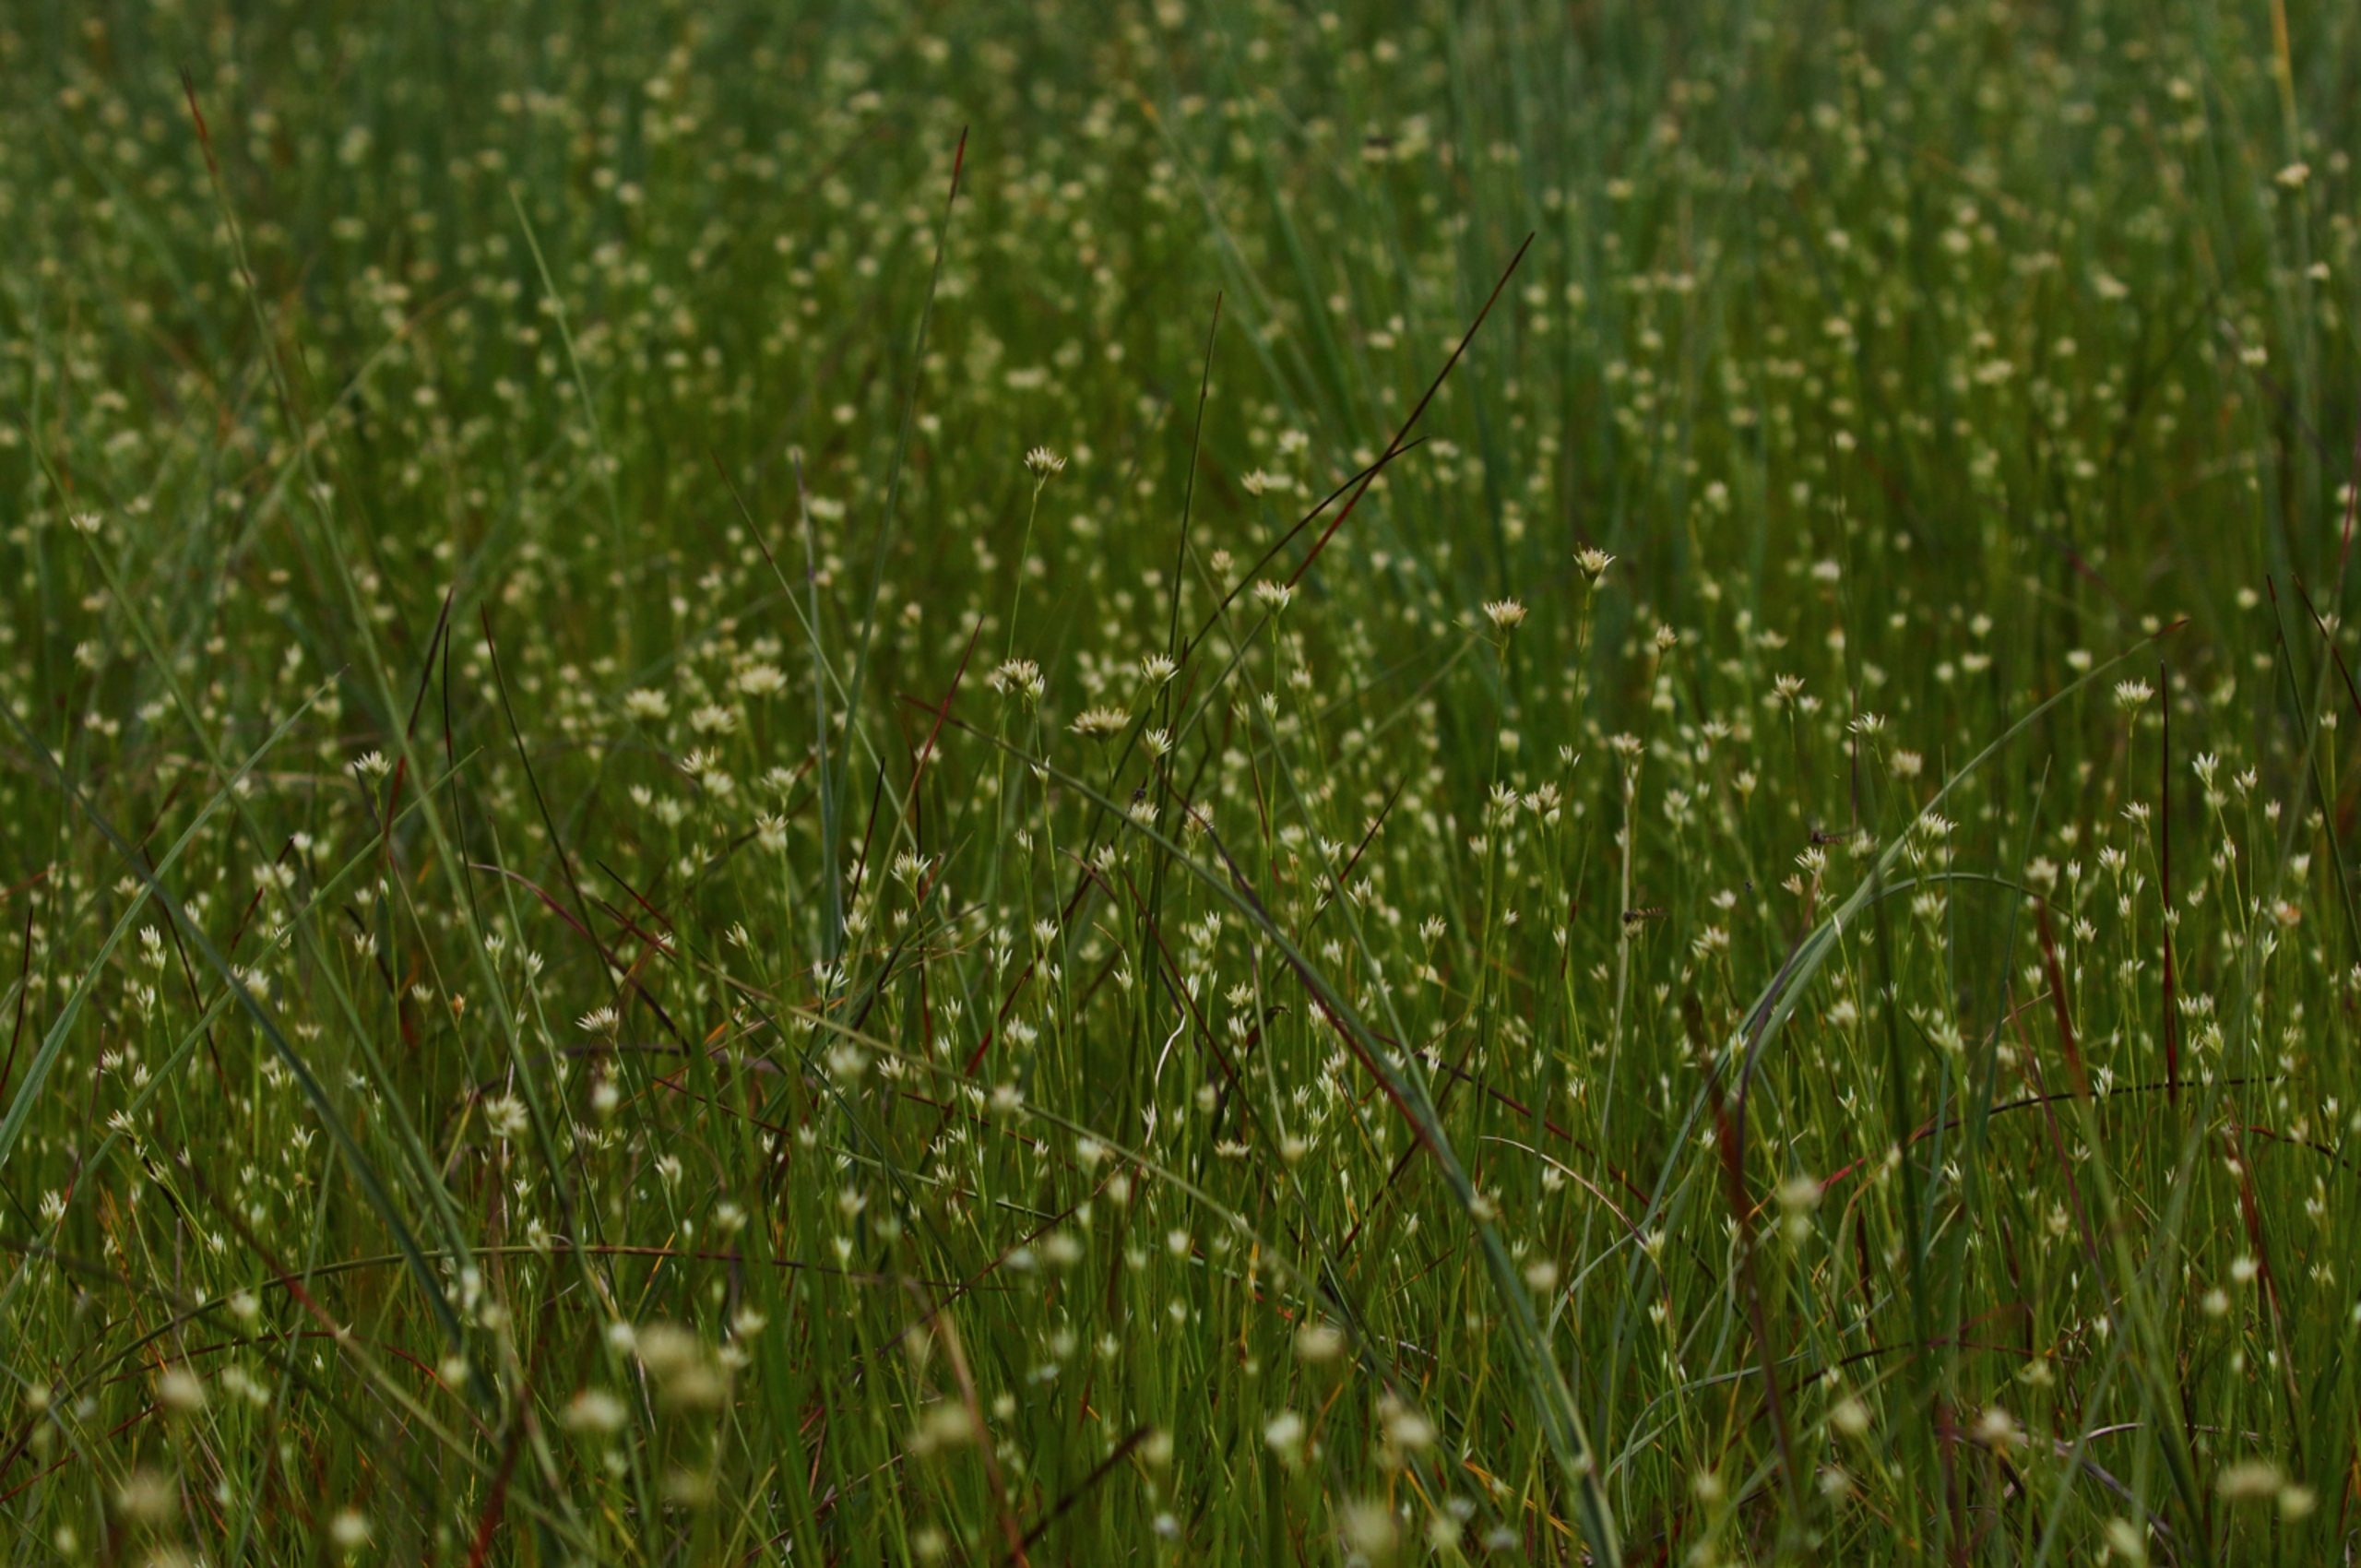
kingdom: Plantae
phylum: Tracheophyta
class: Liliopsida
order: Poales
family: Cyperaceae
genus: Rhynchospora
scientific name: Rhynchospora alba
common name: Hvid næbfrø
